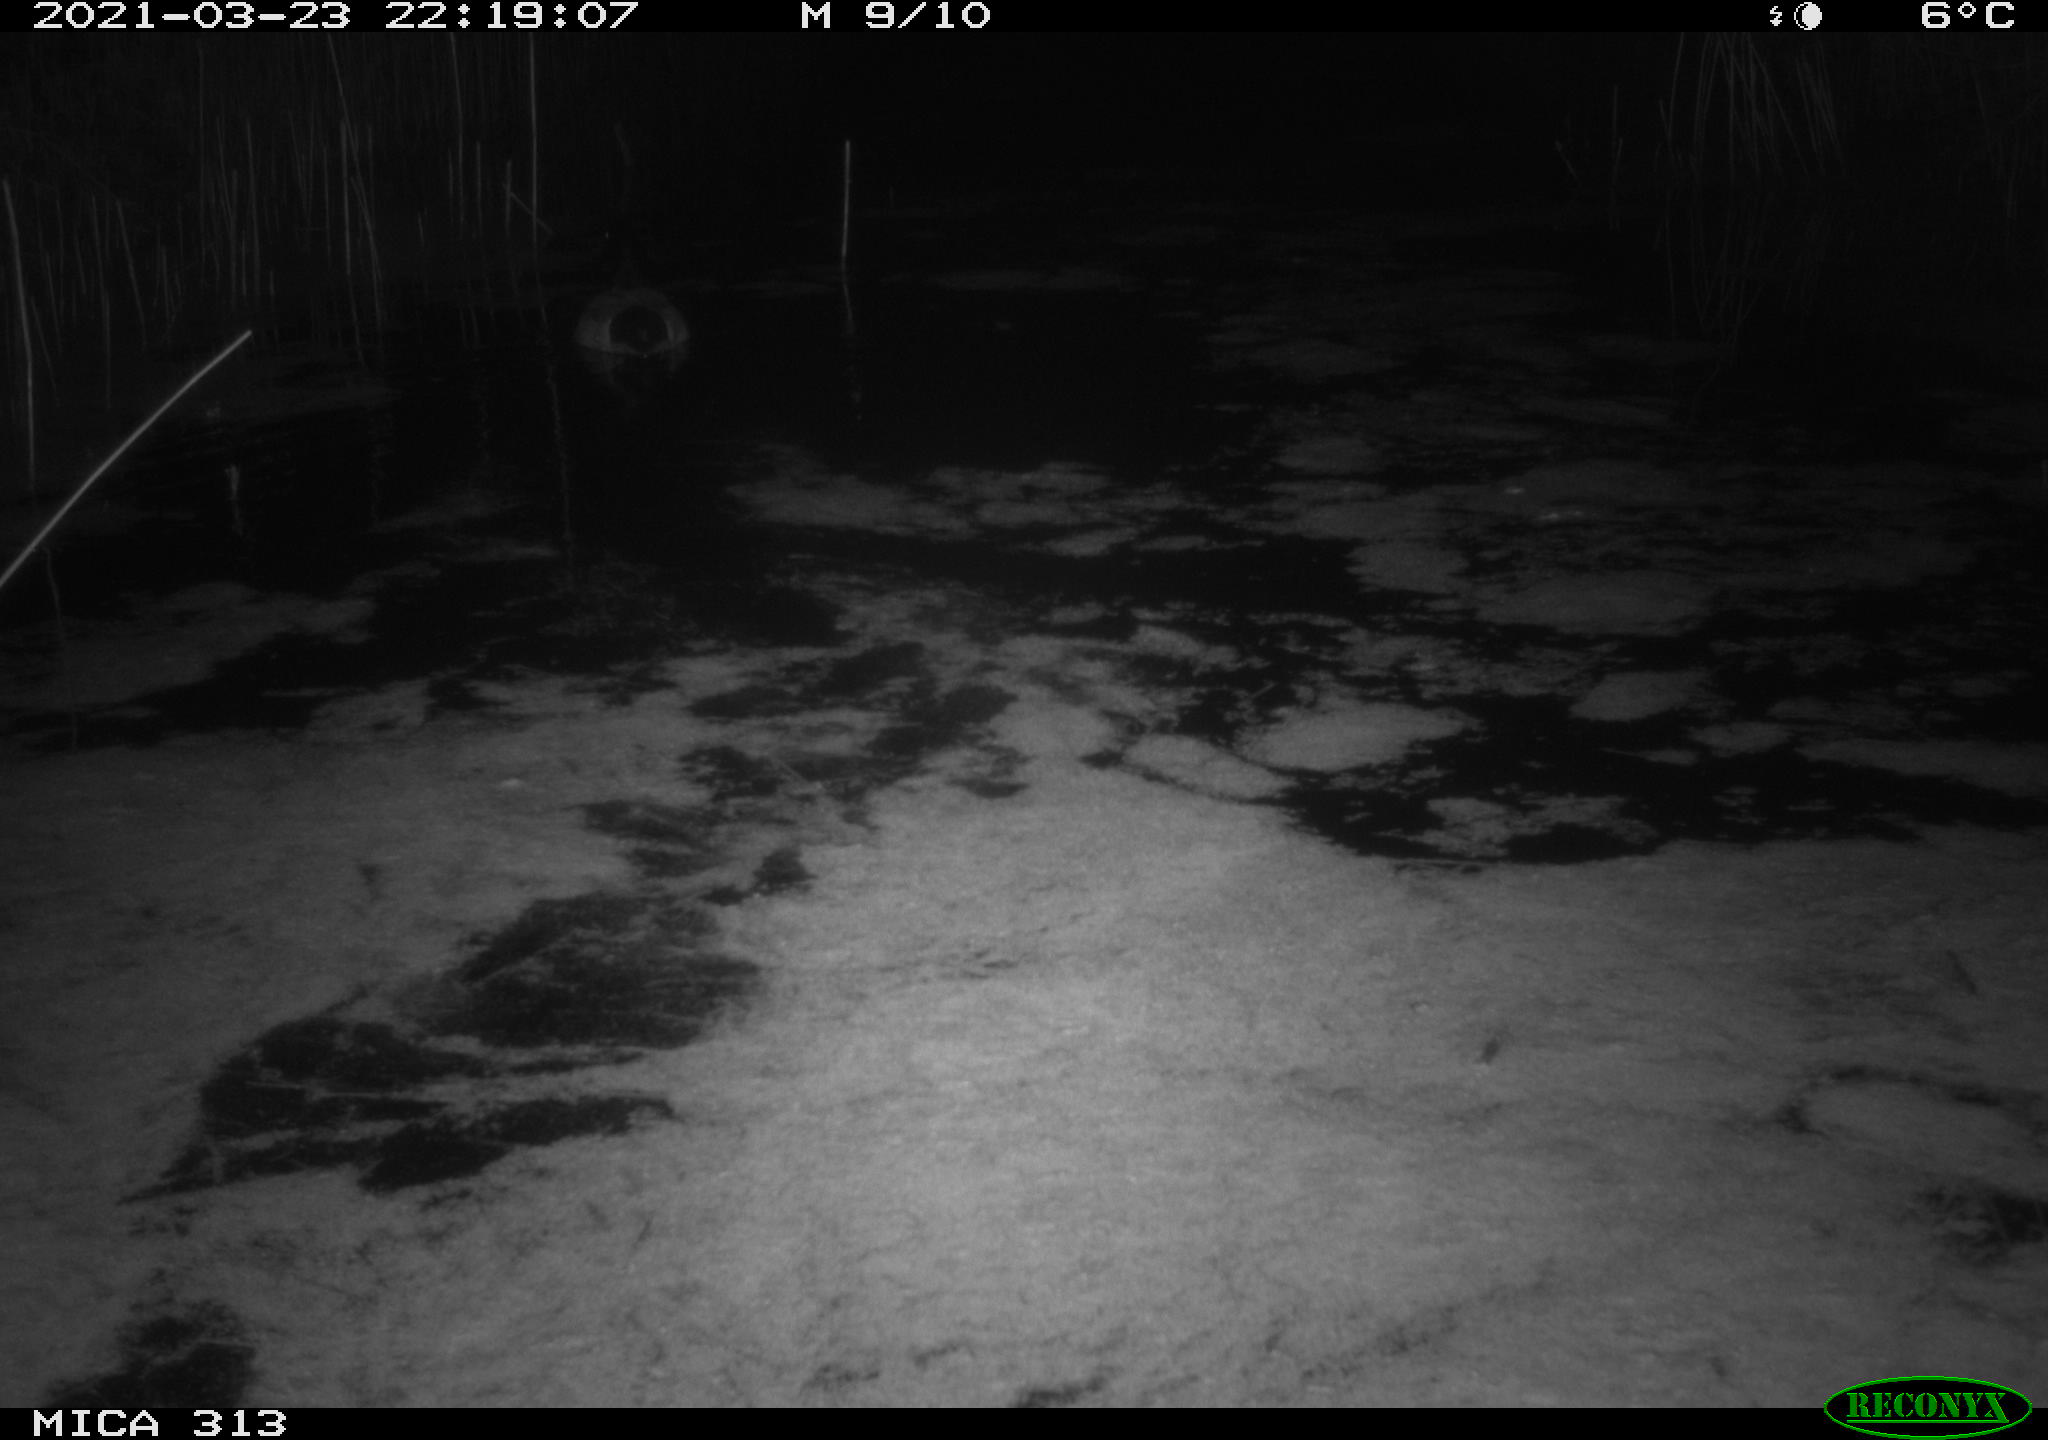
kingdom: Animalia
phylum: Chordata
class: Aves
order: Anseriformes
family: Anatidae
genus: Anas
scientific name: Anas platyrhynchos
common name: Mallard
